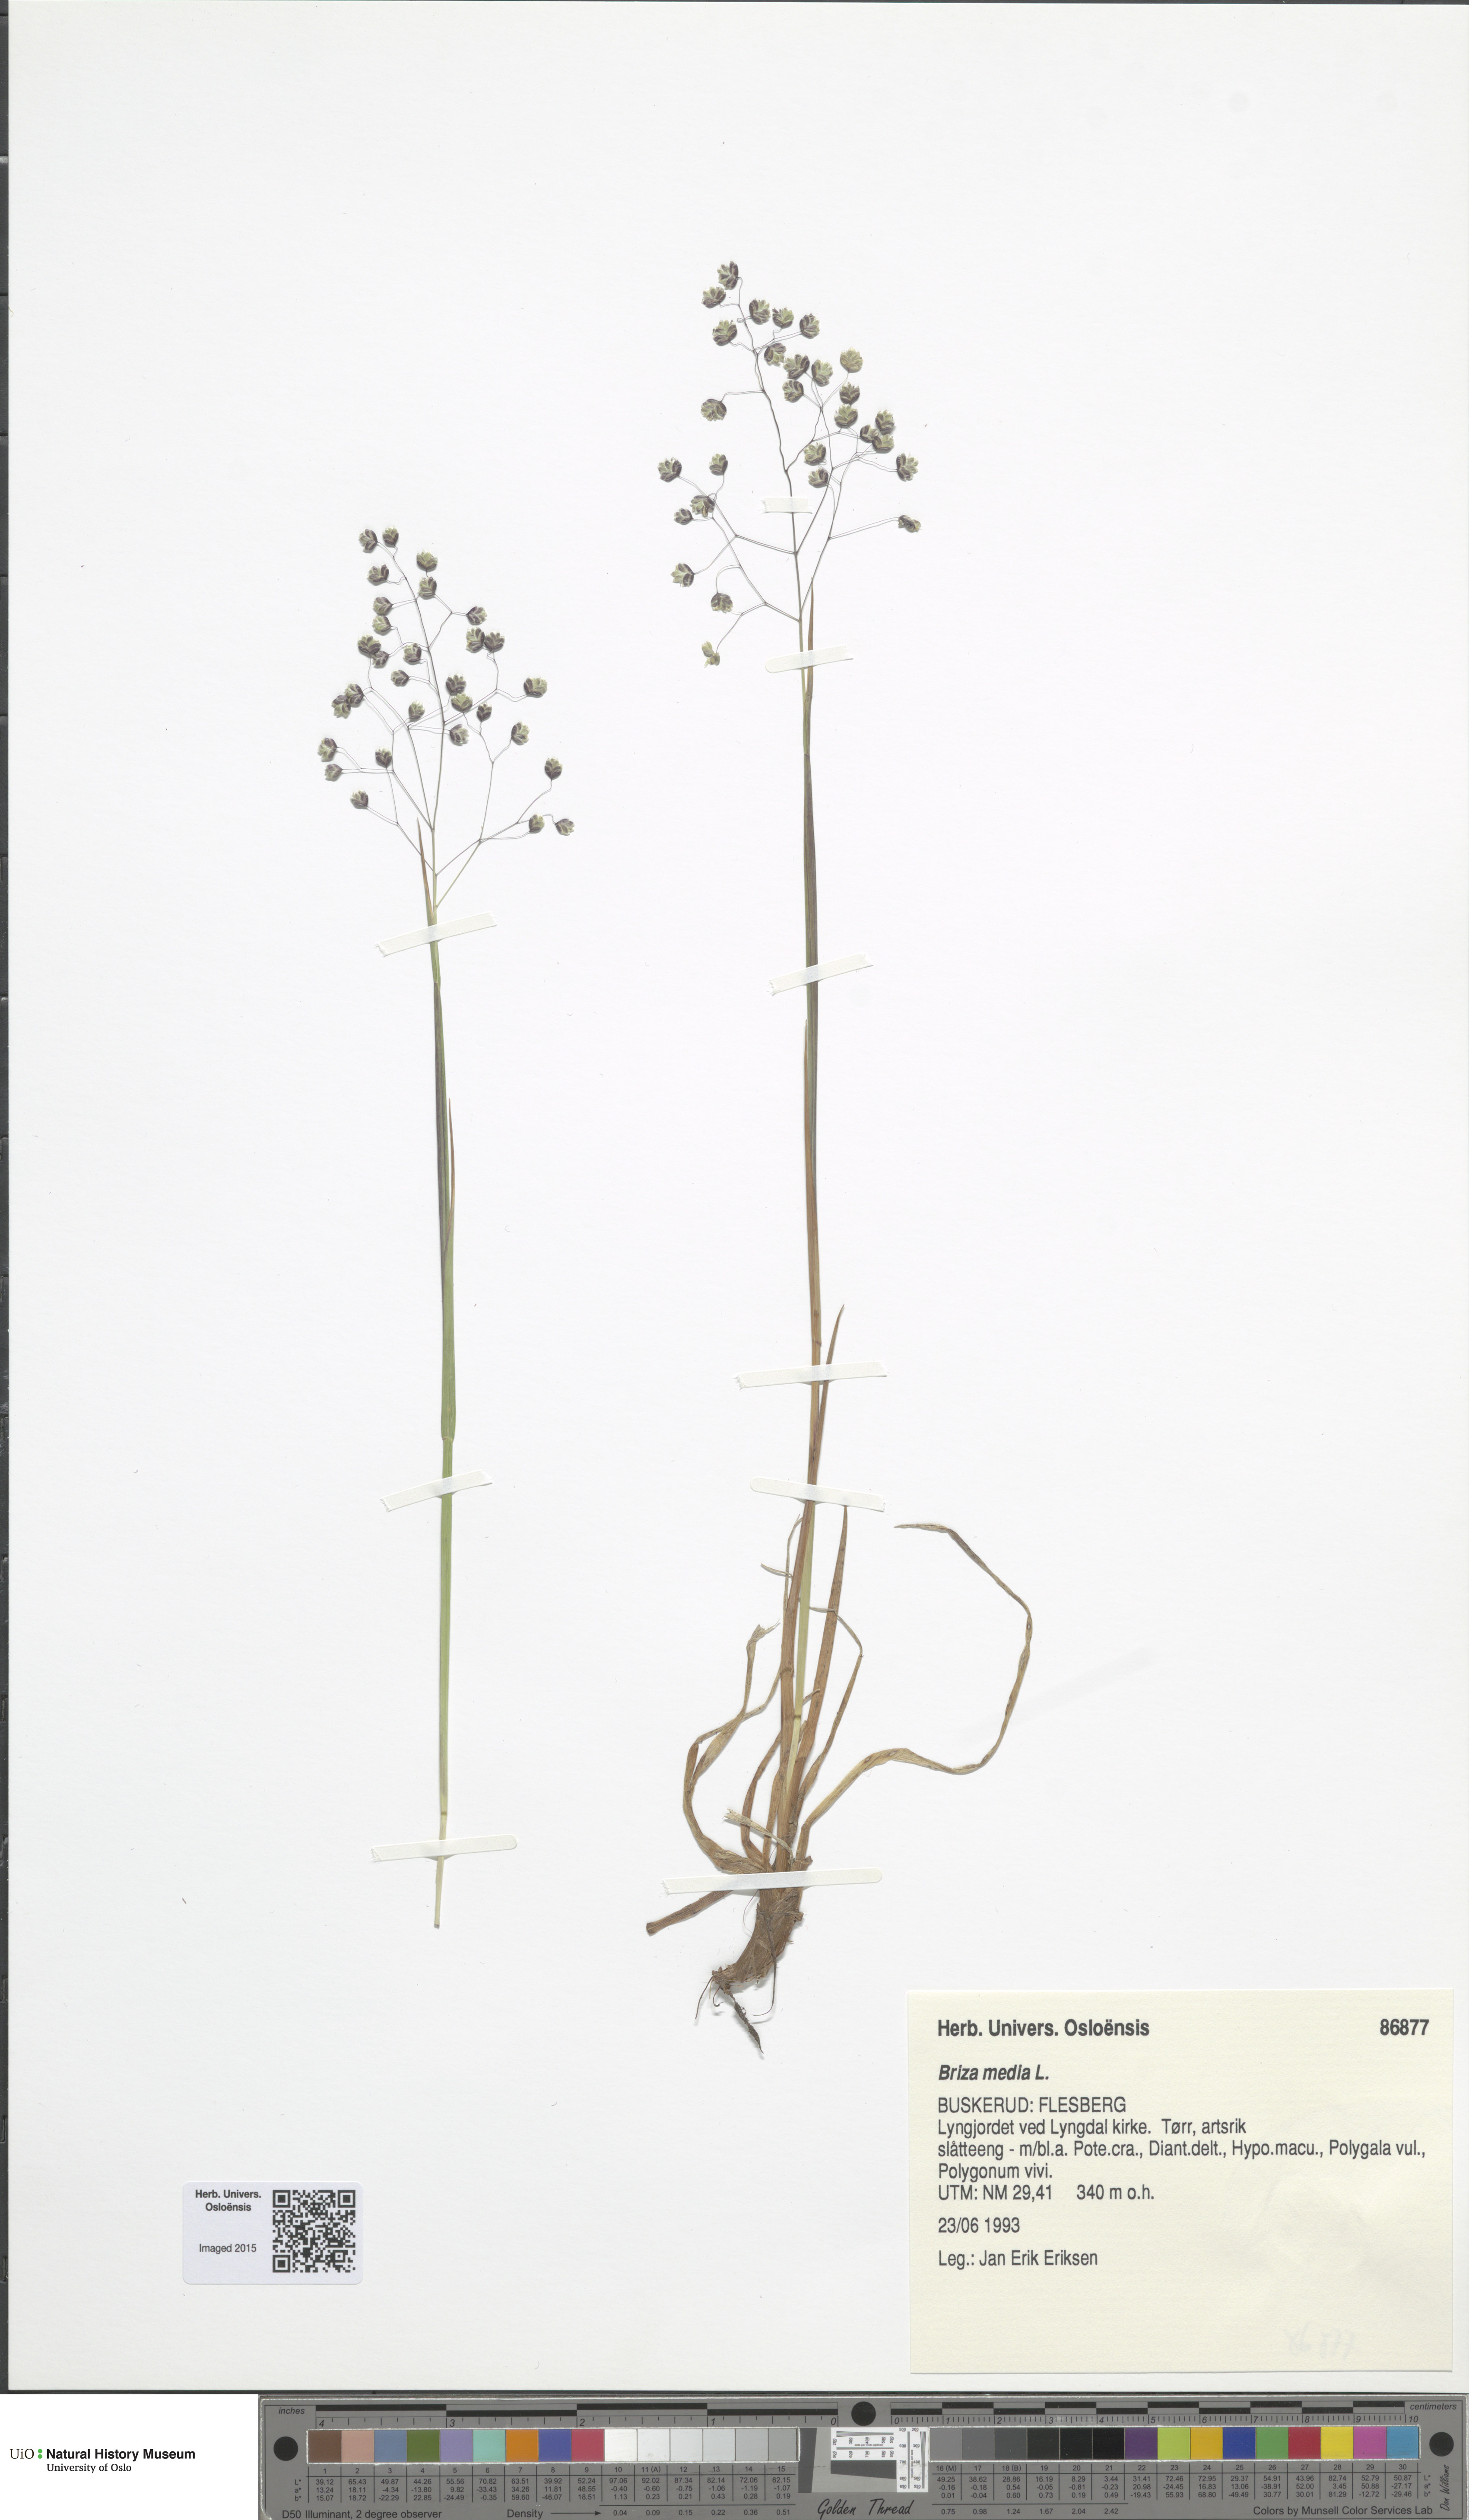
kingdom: Plantae
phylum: Tracheophyta
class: Liliopsida
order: Poales
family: Poaceae
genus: Briza
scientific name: Briza media
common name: Quaking grass
